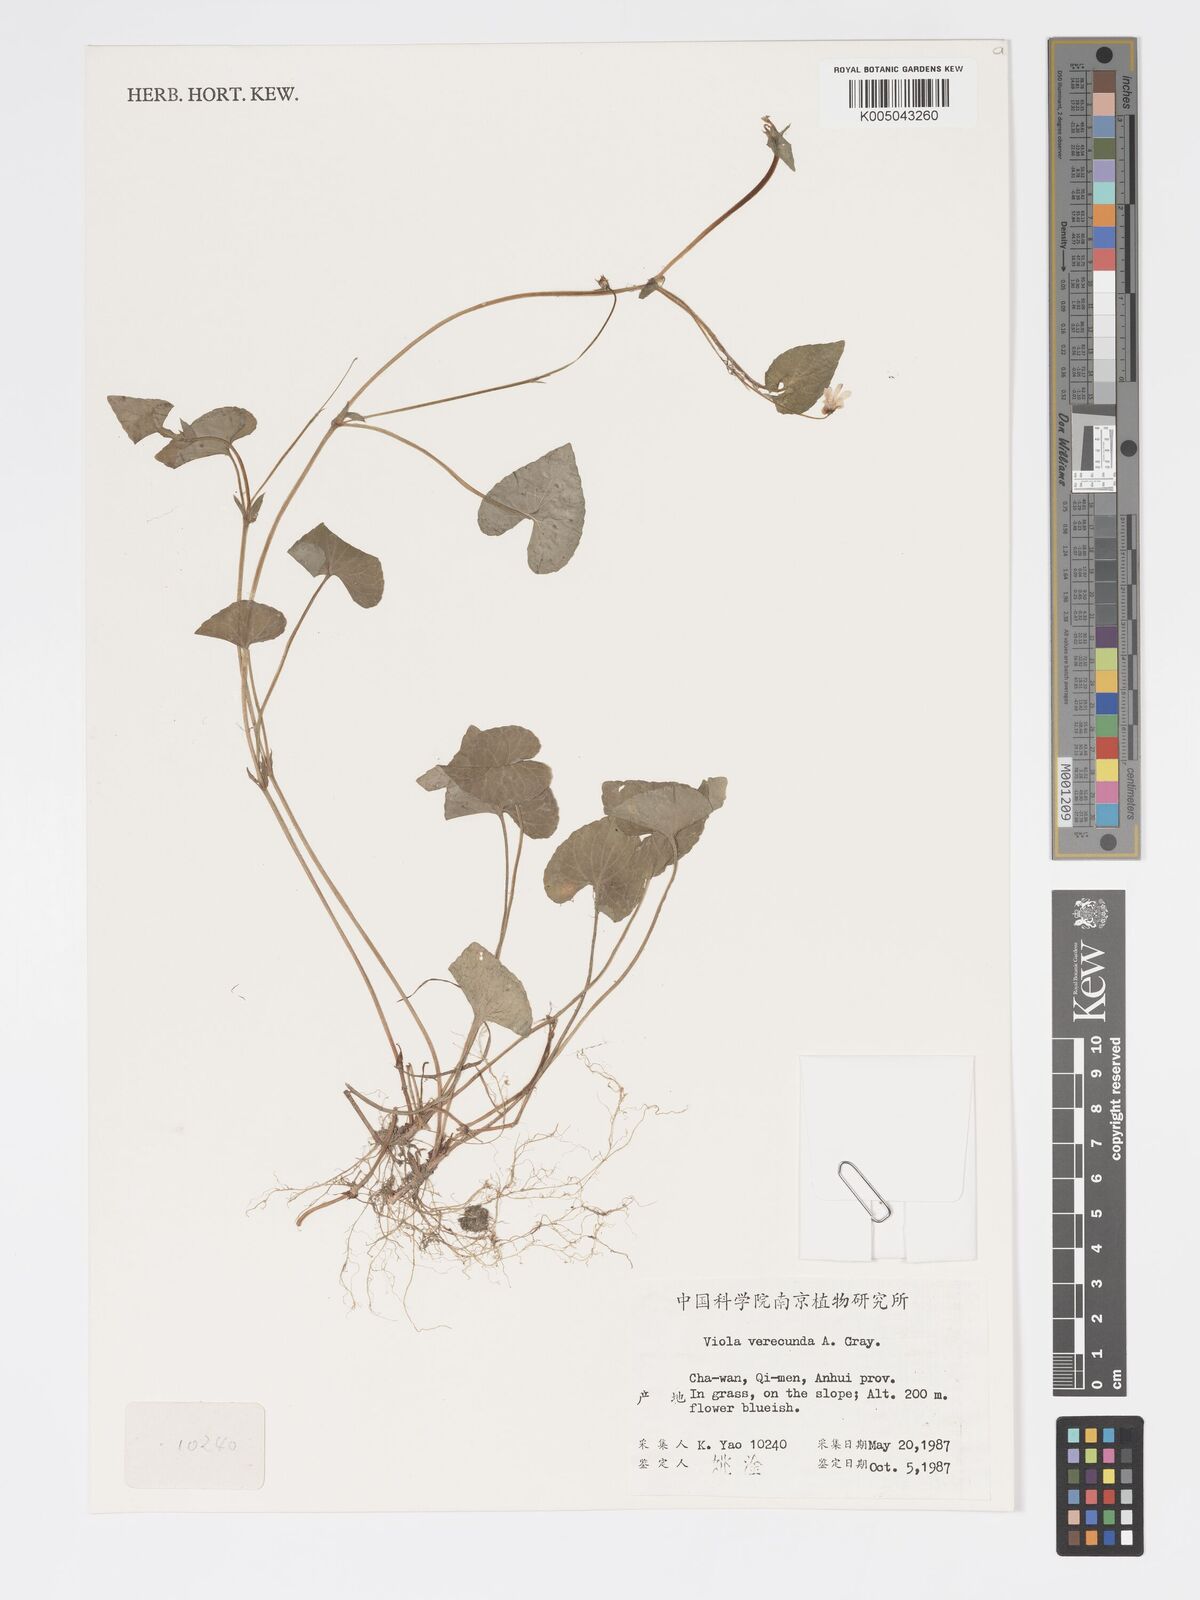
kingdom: Plantae
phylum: Tracheophyta
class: Magnoliopsida
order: Malpighiales
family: Violaceae
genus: Viola
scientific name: Viola hamiltoniana
